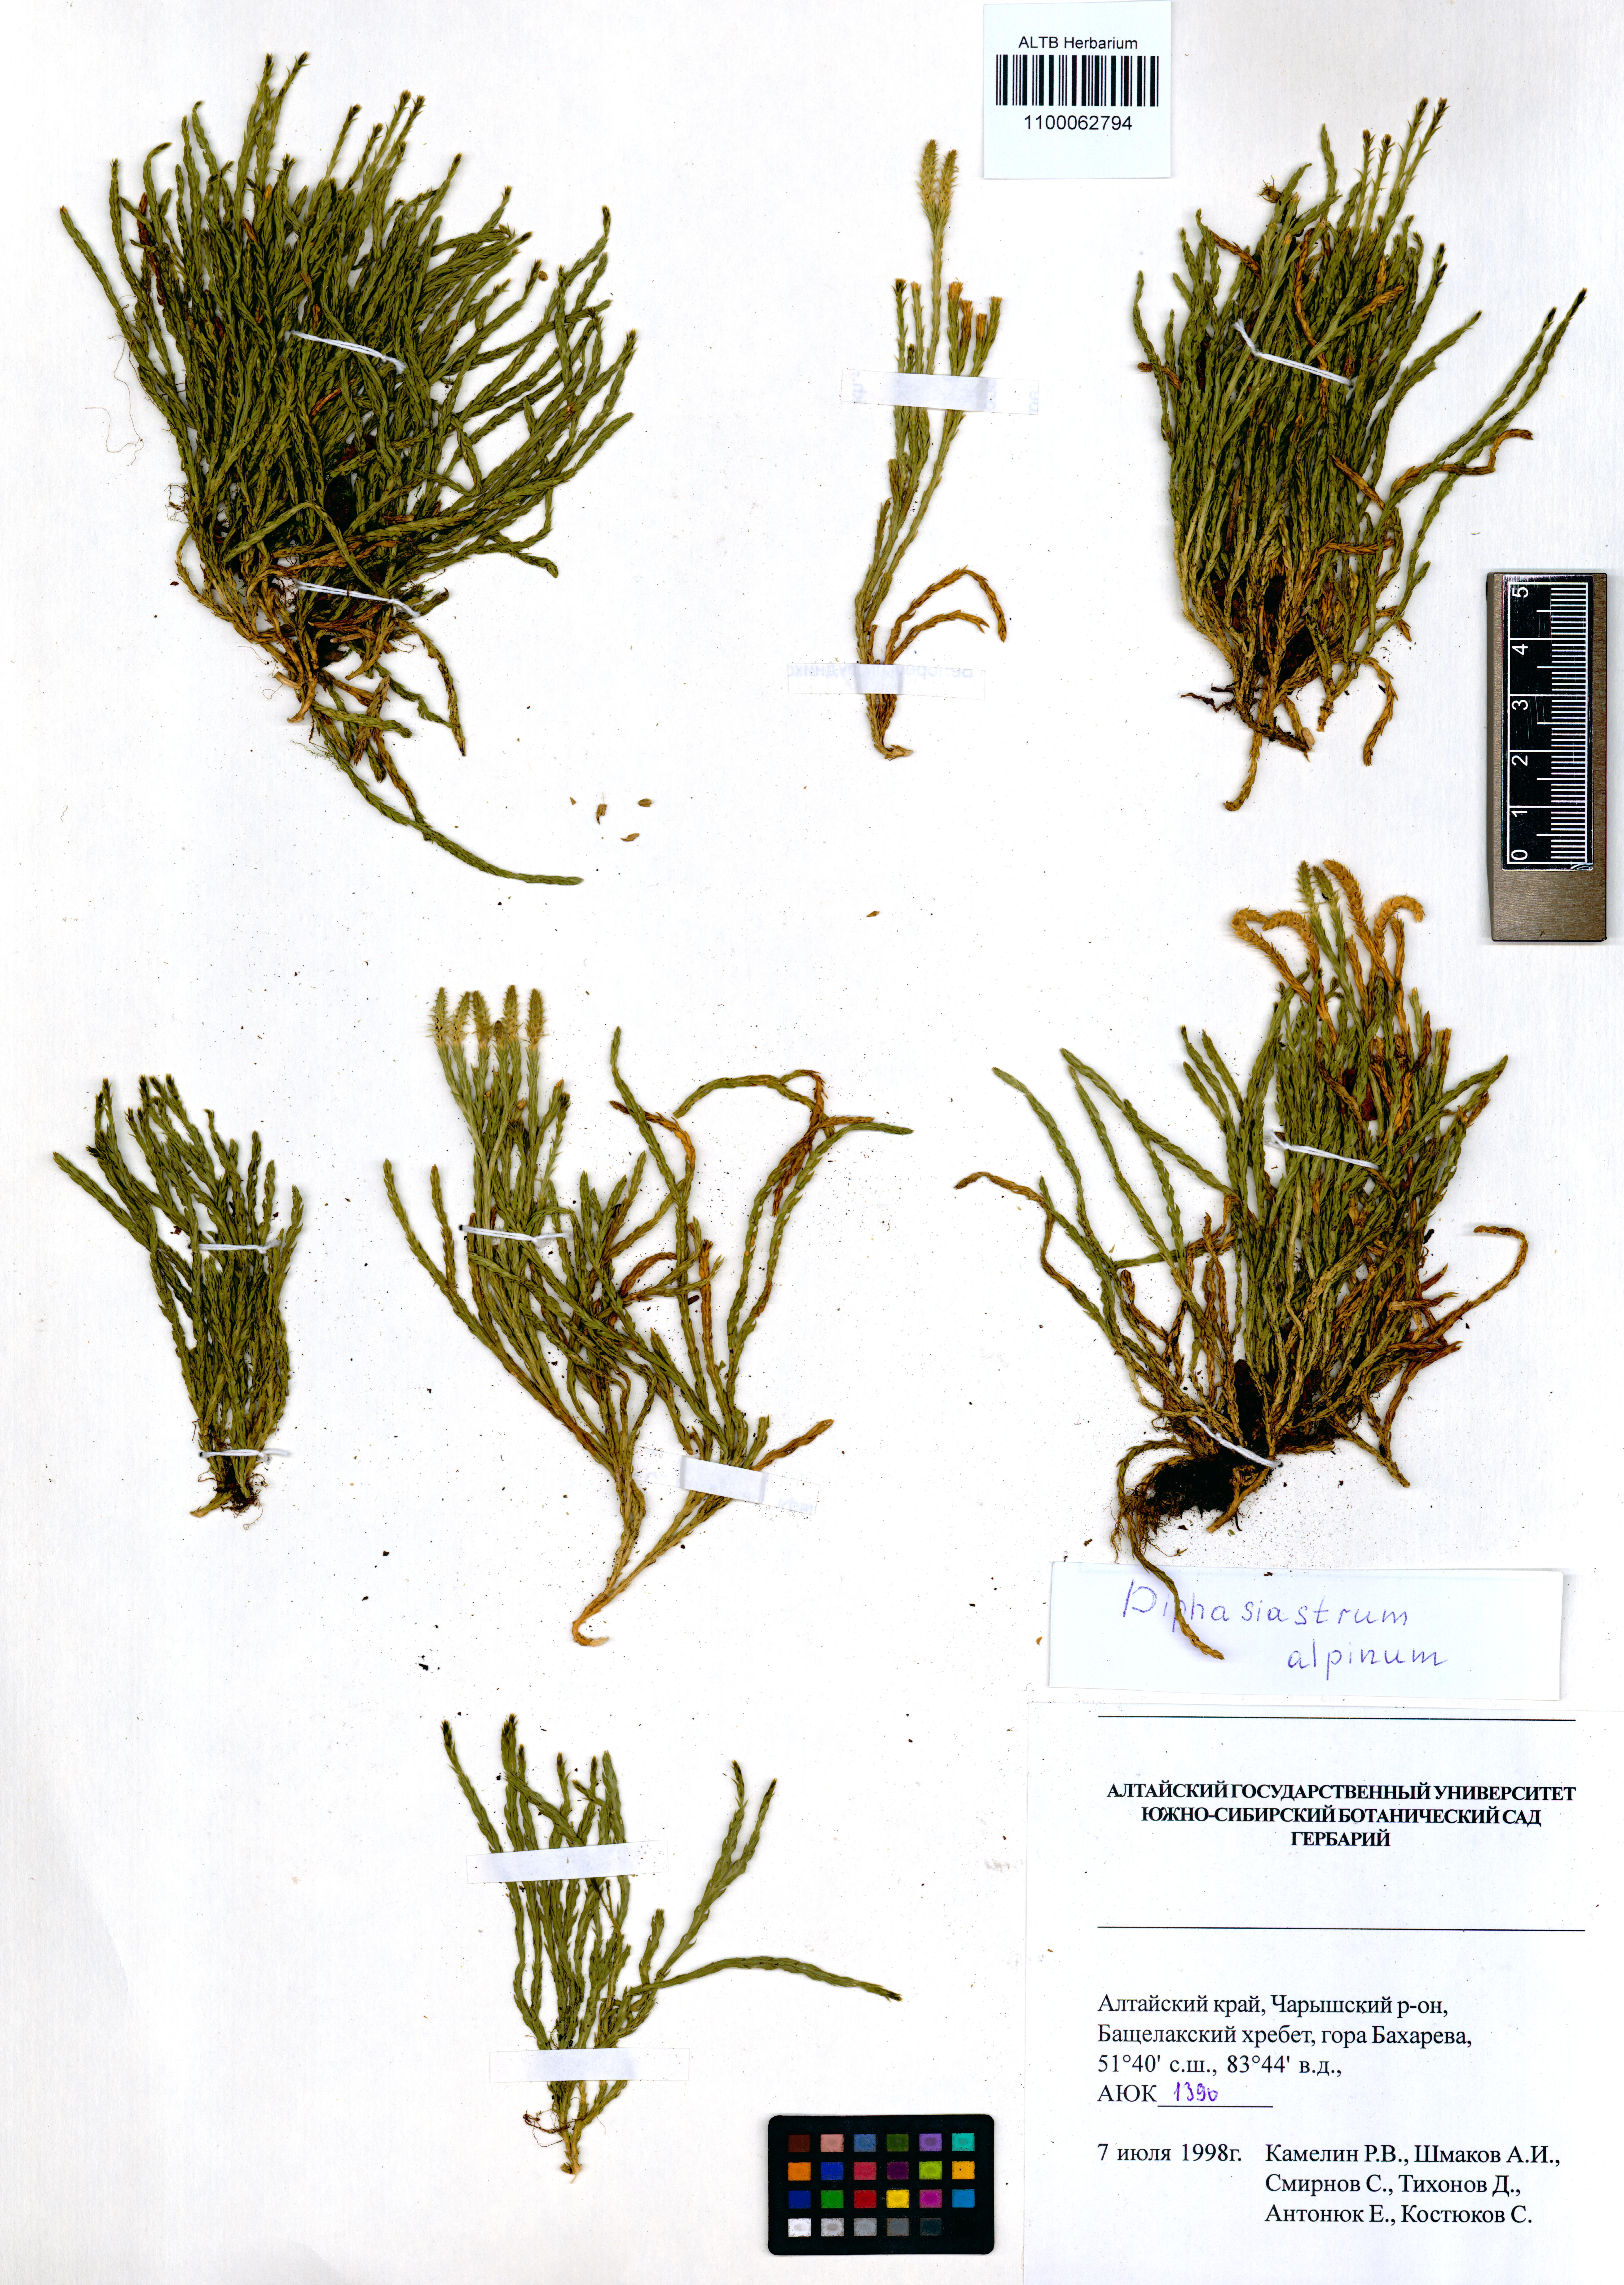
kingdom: Plantae
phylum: Tracheophyta
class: Lycopodiopsida
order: Lycopodiales
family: Lycopodiaceae
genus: Diphasiastrum
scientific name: Diphasiastrum alpinum
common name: Alpine clubmoss
